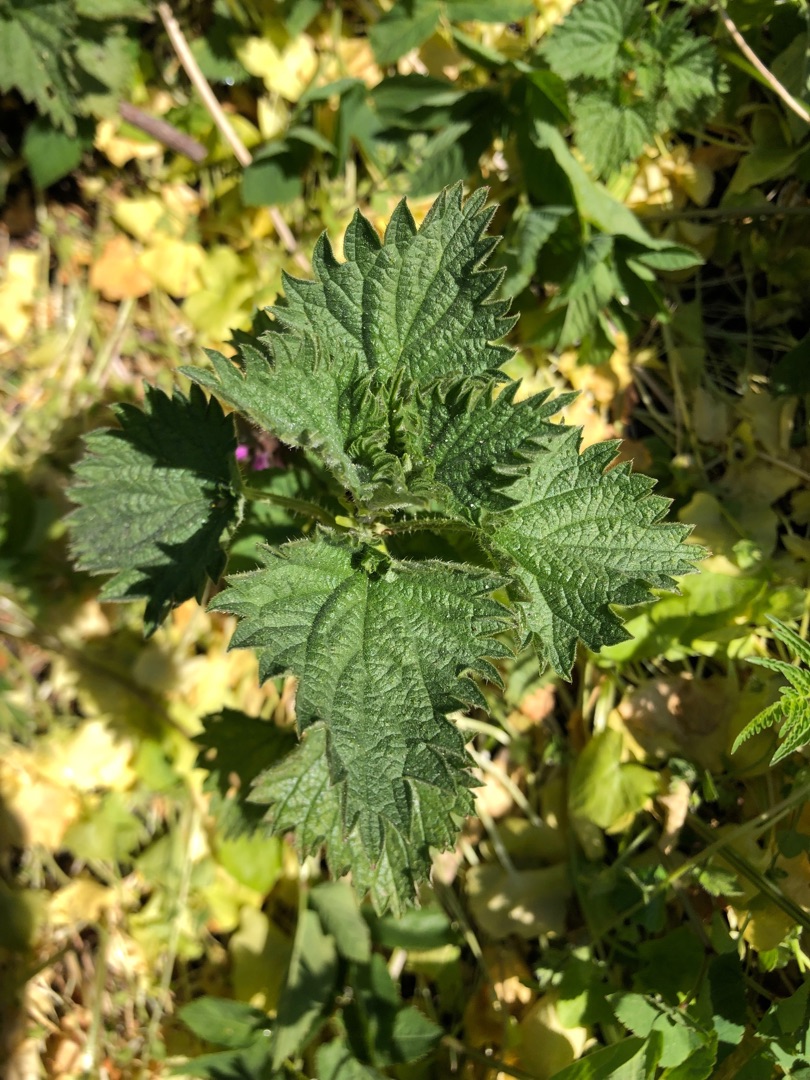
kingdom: Plantae
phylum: Tracheophyta
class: Magnoliopsida
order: Rosales
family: Urticaceae
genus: Urtica
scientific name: Urtica dioica
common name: Stor nælde
